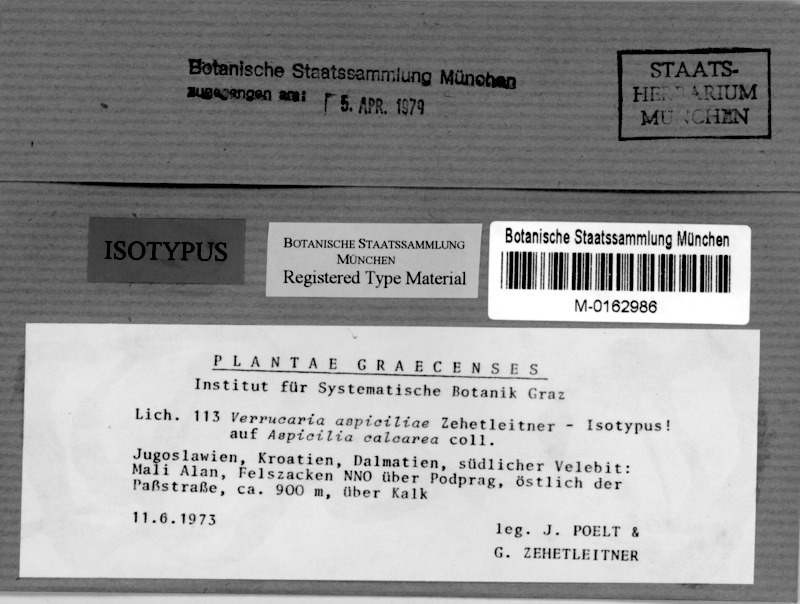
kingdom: Fungi
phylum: Ascomycota
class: Lecanoromycetes
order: Pertusariales
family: Megasporaceae
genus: Circinaria
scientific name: Circinaria calcarea
